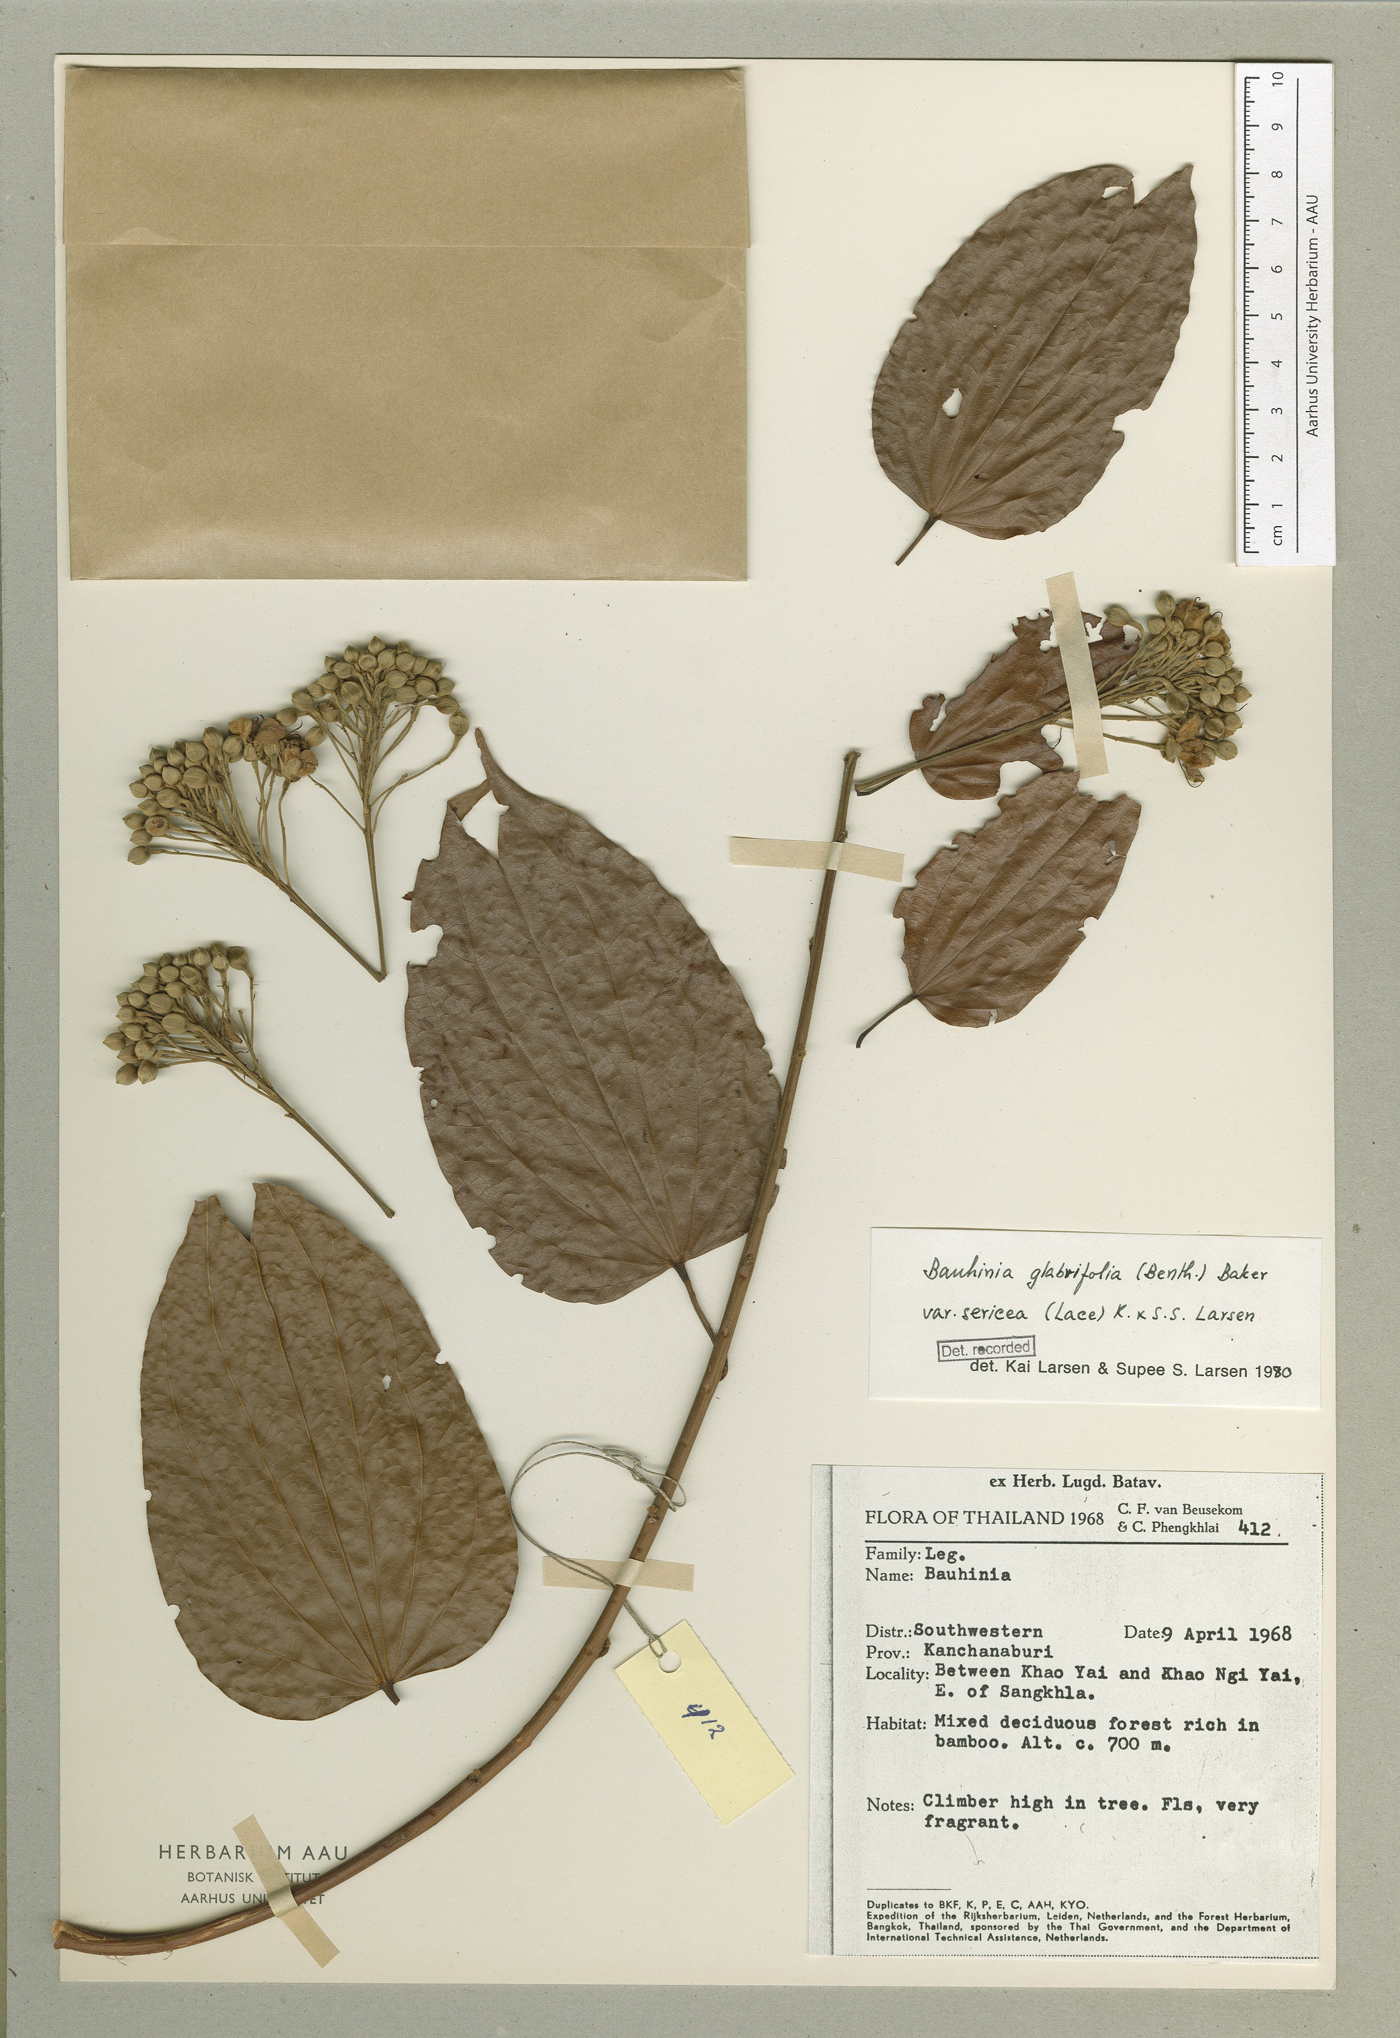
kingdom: Plantae
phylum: Tracheophyta
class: Magnoliopsida
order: Fabales
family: Fabaceae
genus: Phanera
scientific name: Phanera glabrifolia
